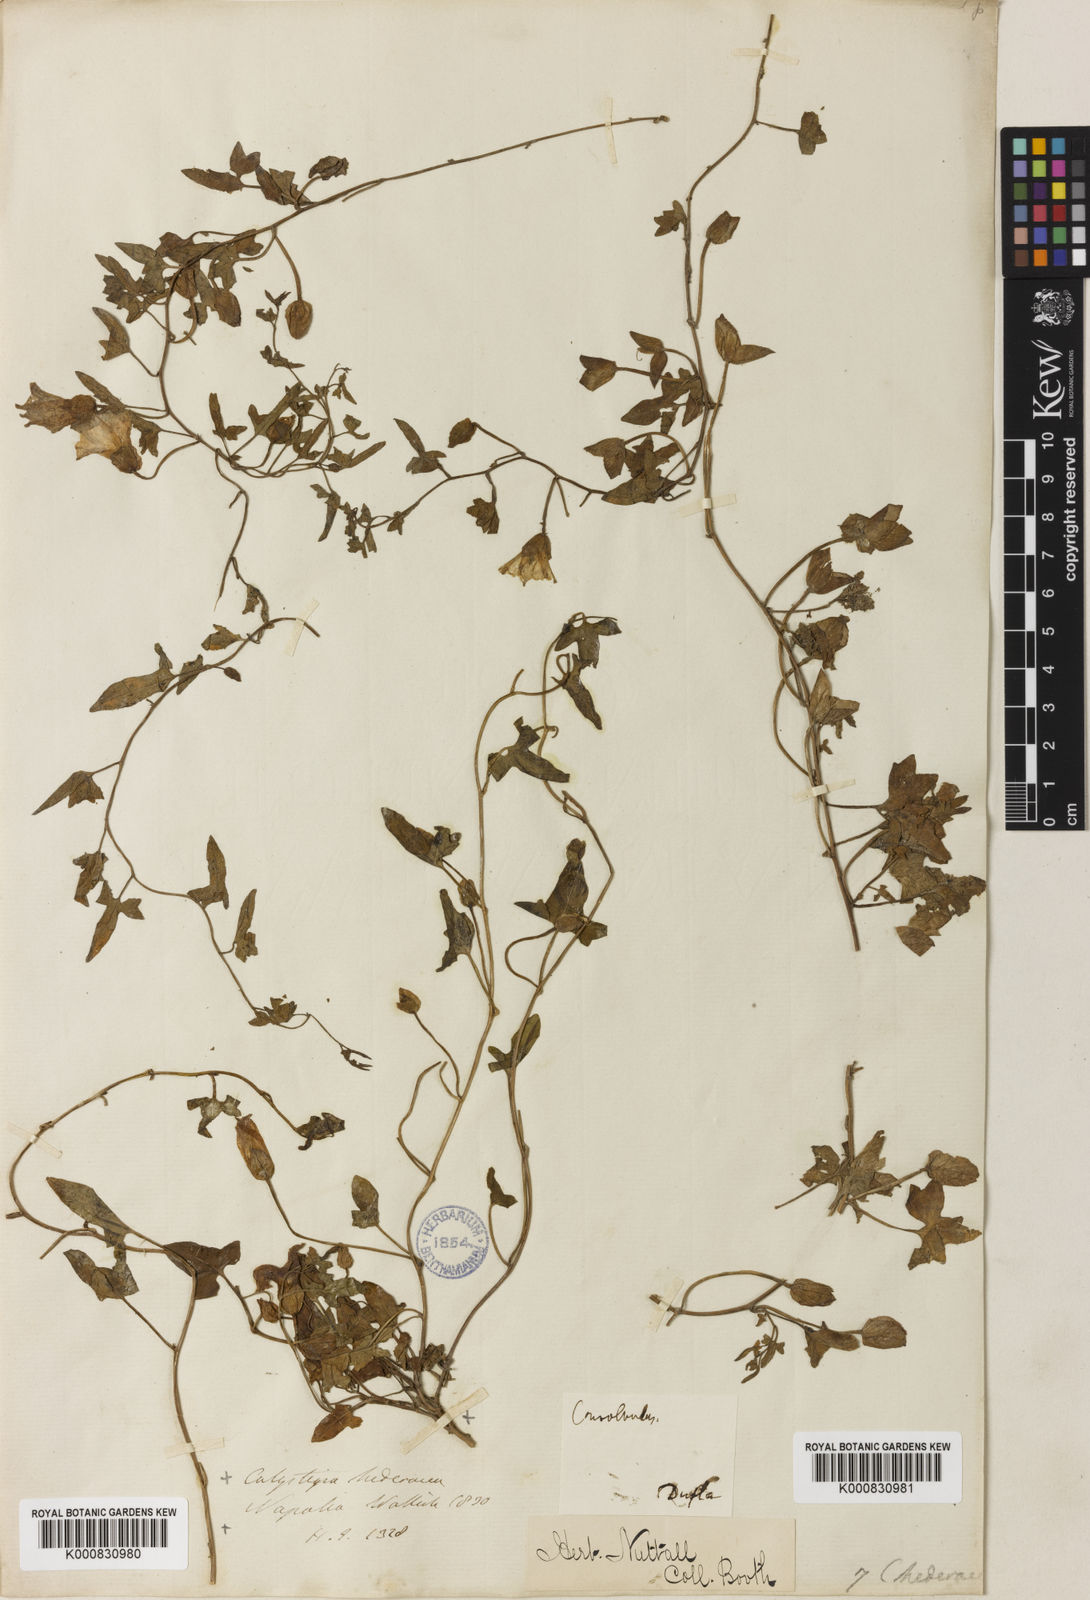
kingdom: Plantae
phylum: Tracheophyta
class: Magnoliopsida
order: Solanales
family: Convolvulaceae
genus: Calystegia
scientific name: Calystegia hederacea
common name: Japanese false bindweed
